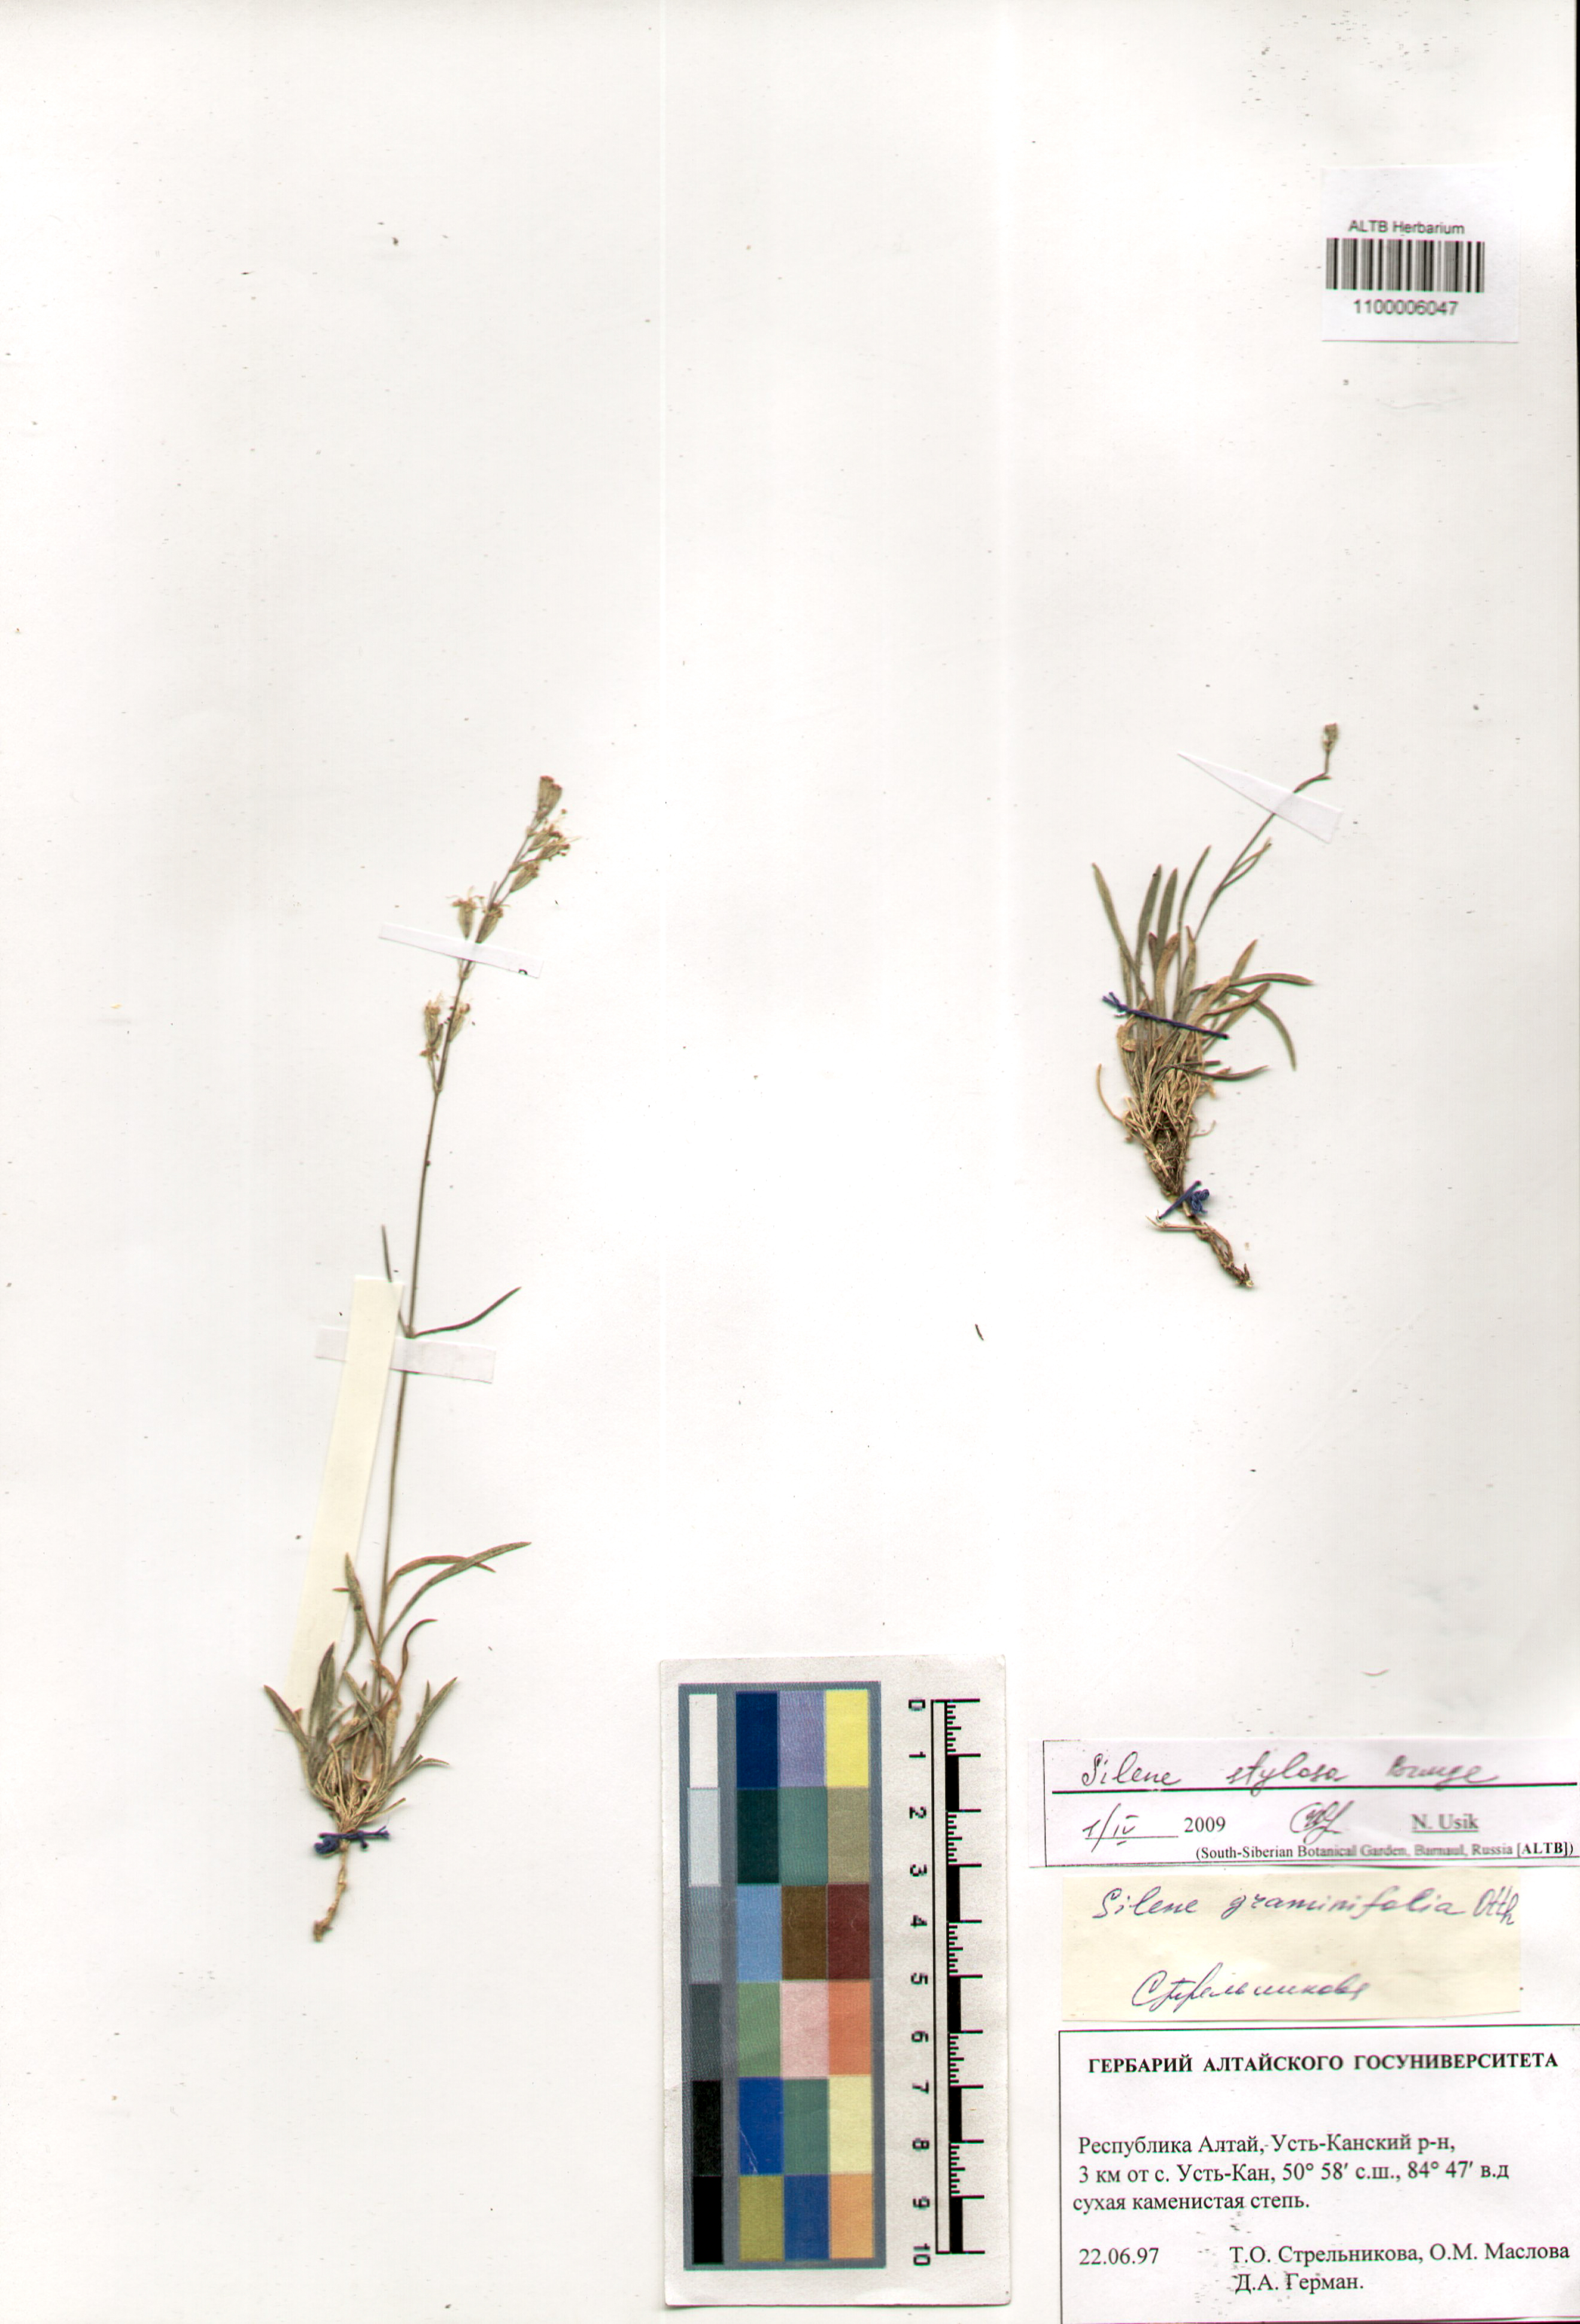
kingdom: Plantae
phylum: Tracheophyta
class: Magnoliopsida
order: Caryophyllales
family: Caryophyllaceae
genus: Silene
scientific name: Silene graminifolia
